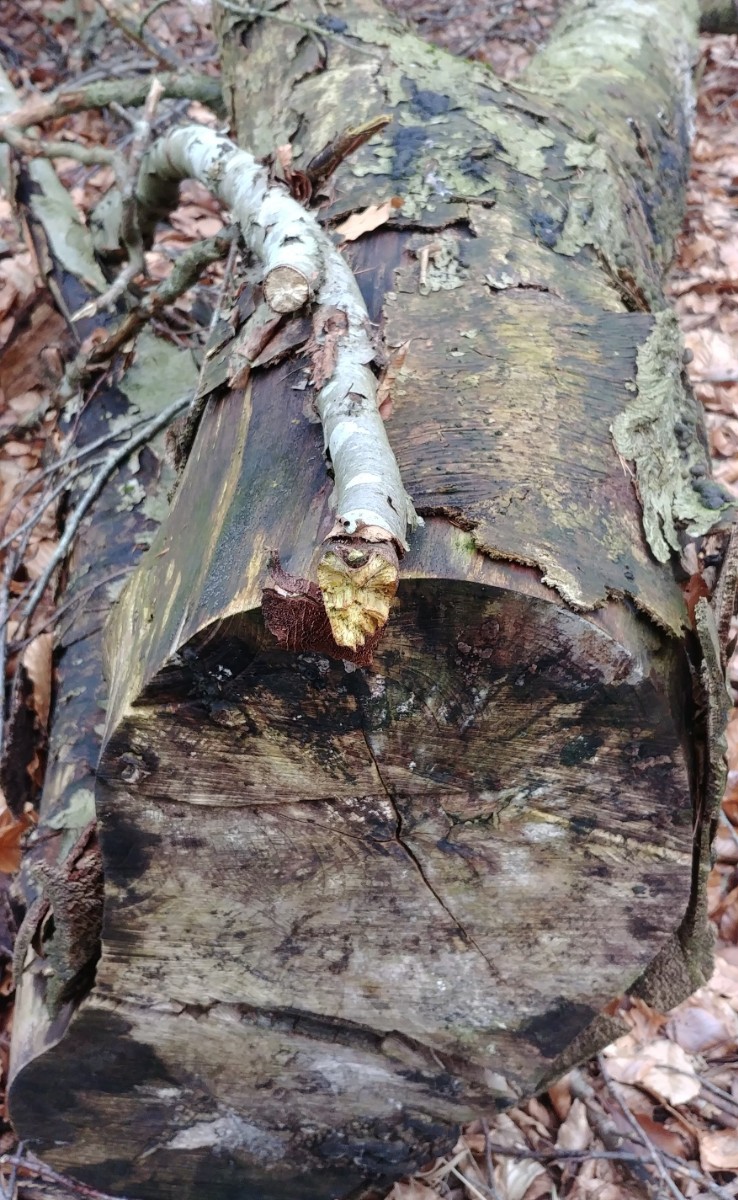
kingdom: Fungi
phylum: Ascomycota
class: Sordariomycetes
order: Xylariales
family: Hypoxylaceae
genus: Jackrogersella
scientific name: Jackrogersella cohaerens
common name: sammenflydende kulbær
